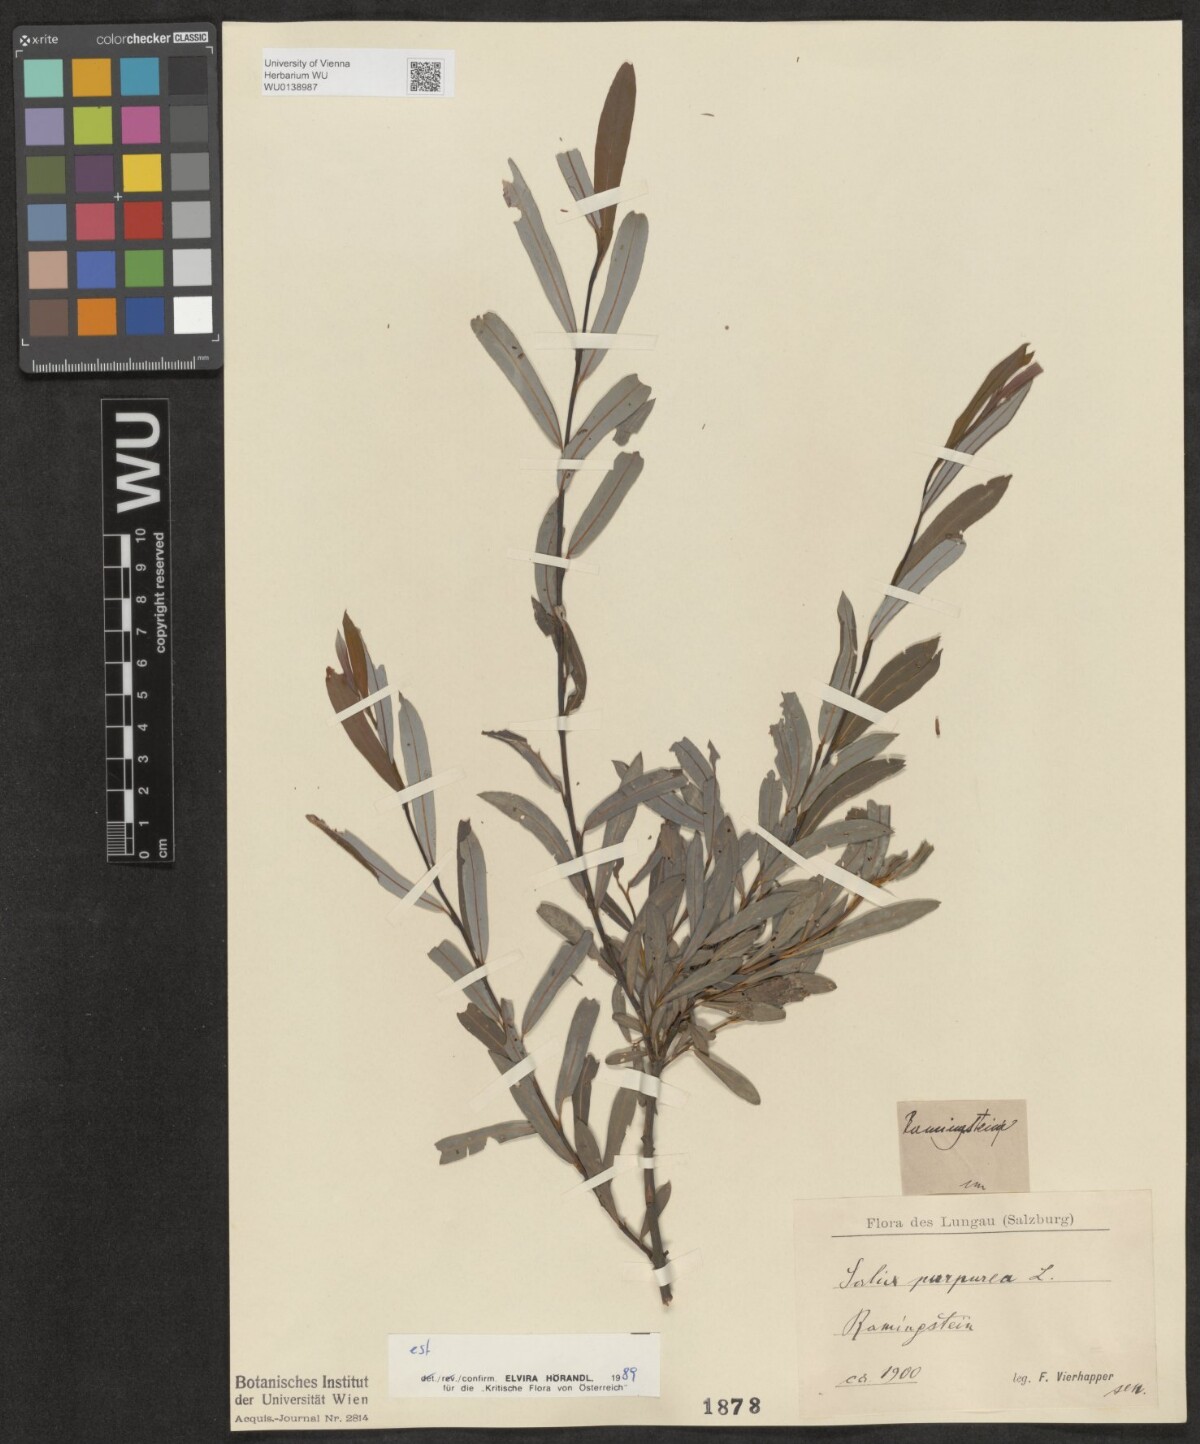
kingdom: Plantae
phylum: Tracheophyta
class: Magnoliopsida
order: Malpighiales
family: Salicaceae
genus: Salix
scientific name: Salix purpurea
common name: Purple willow
